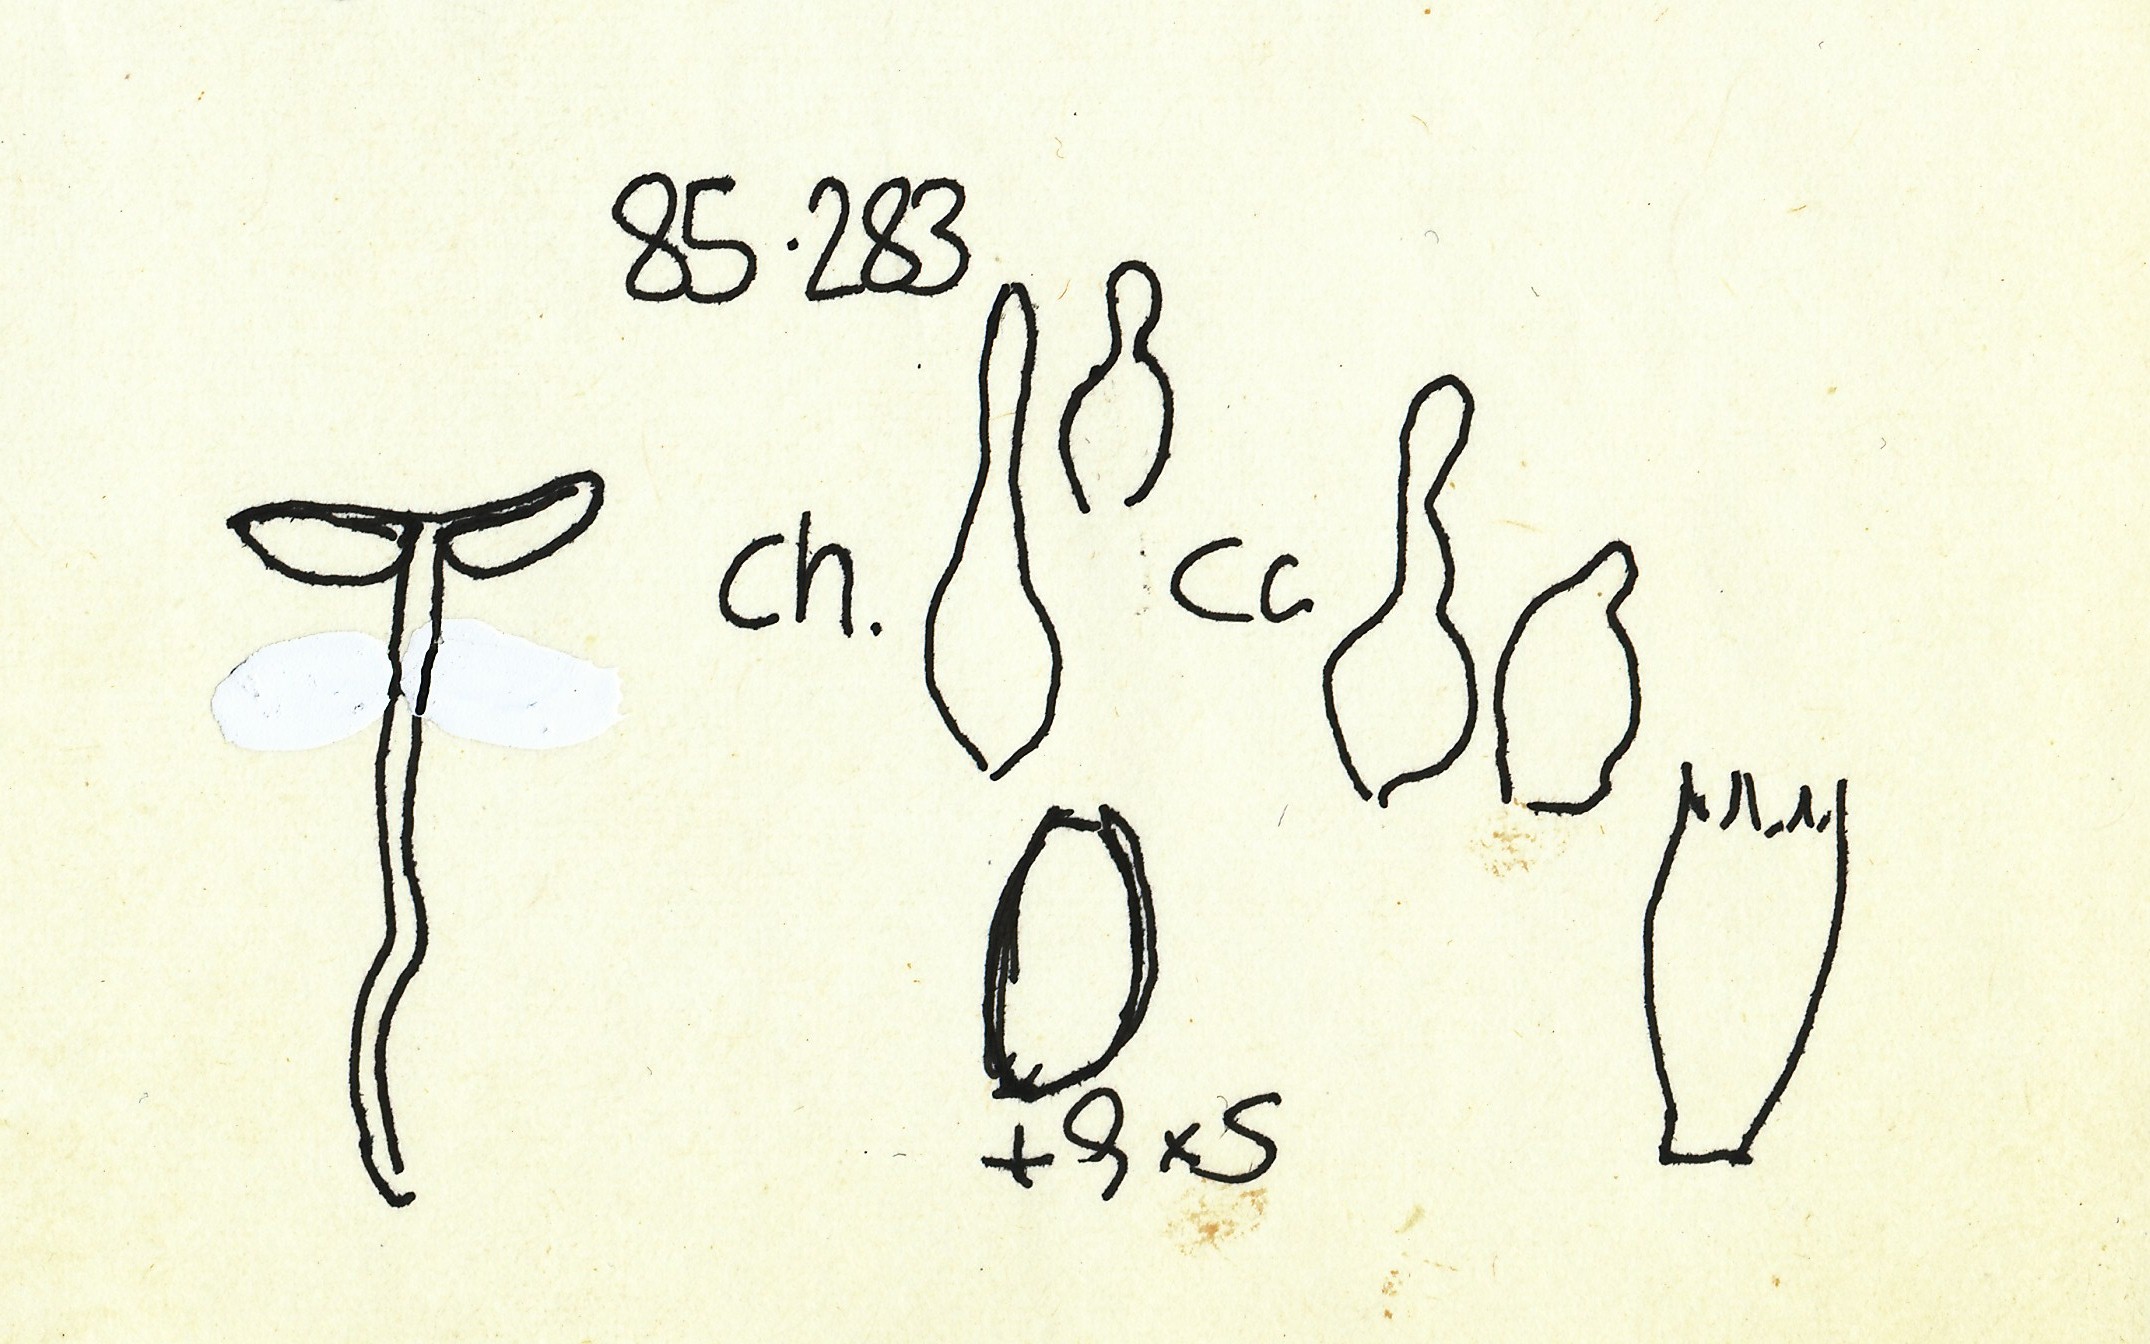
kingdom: Fungi
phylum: Basidiomycota
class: Agaricomycetes
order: Agaricales
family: Bolbitiaceae
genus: Conocybe
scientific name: Conocybe rostellata
